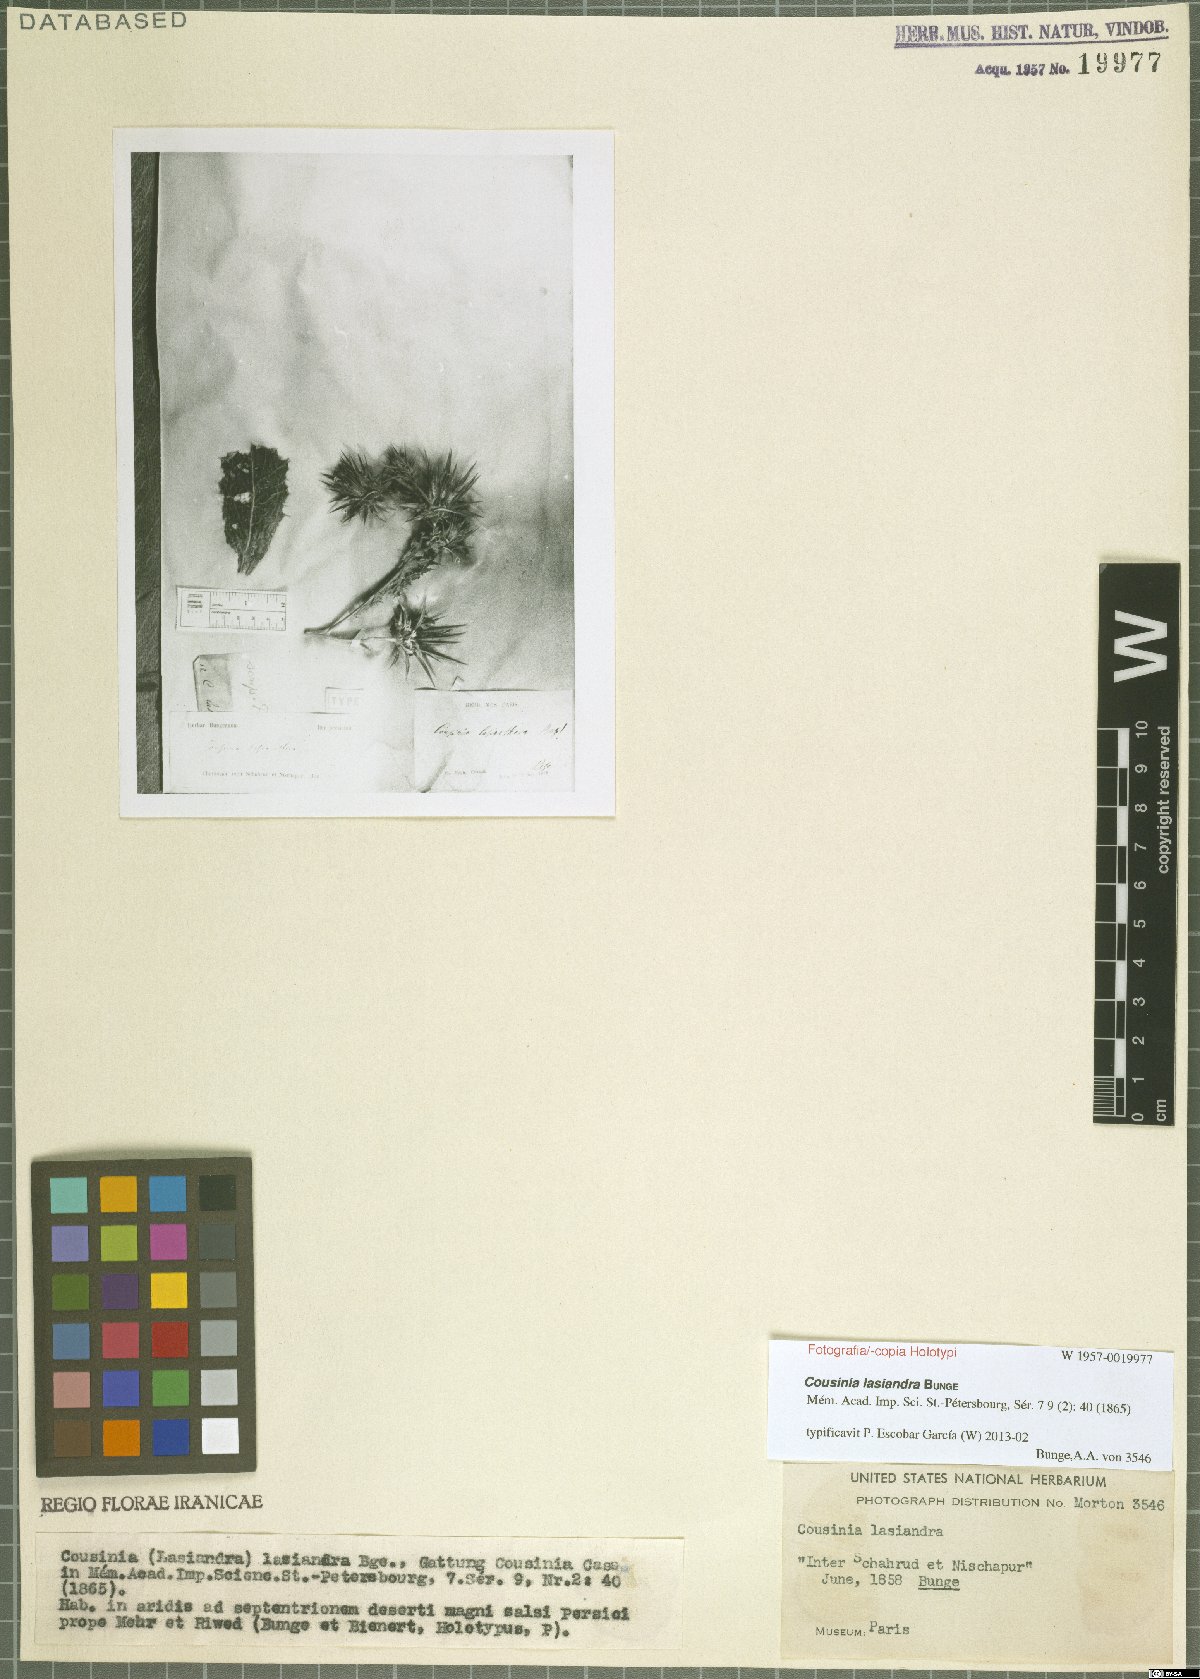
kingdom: Plantae
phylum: Tracheophyta
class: Magnoliopsida
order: Asterales
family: Asteraceae
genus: Cousinia
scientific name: Cousinia lasiandra
